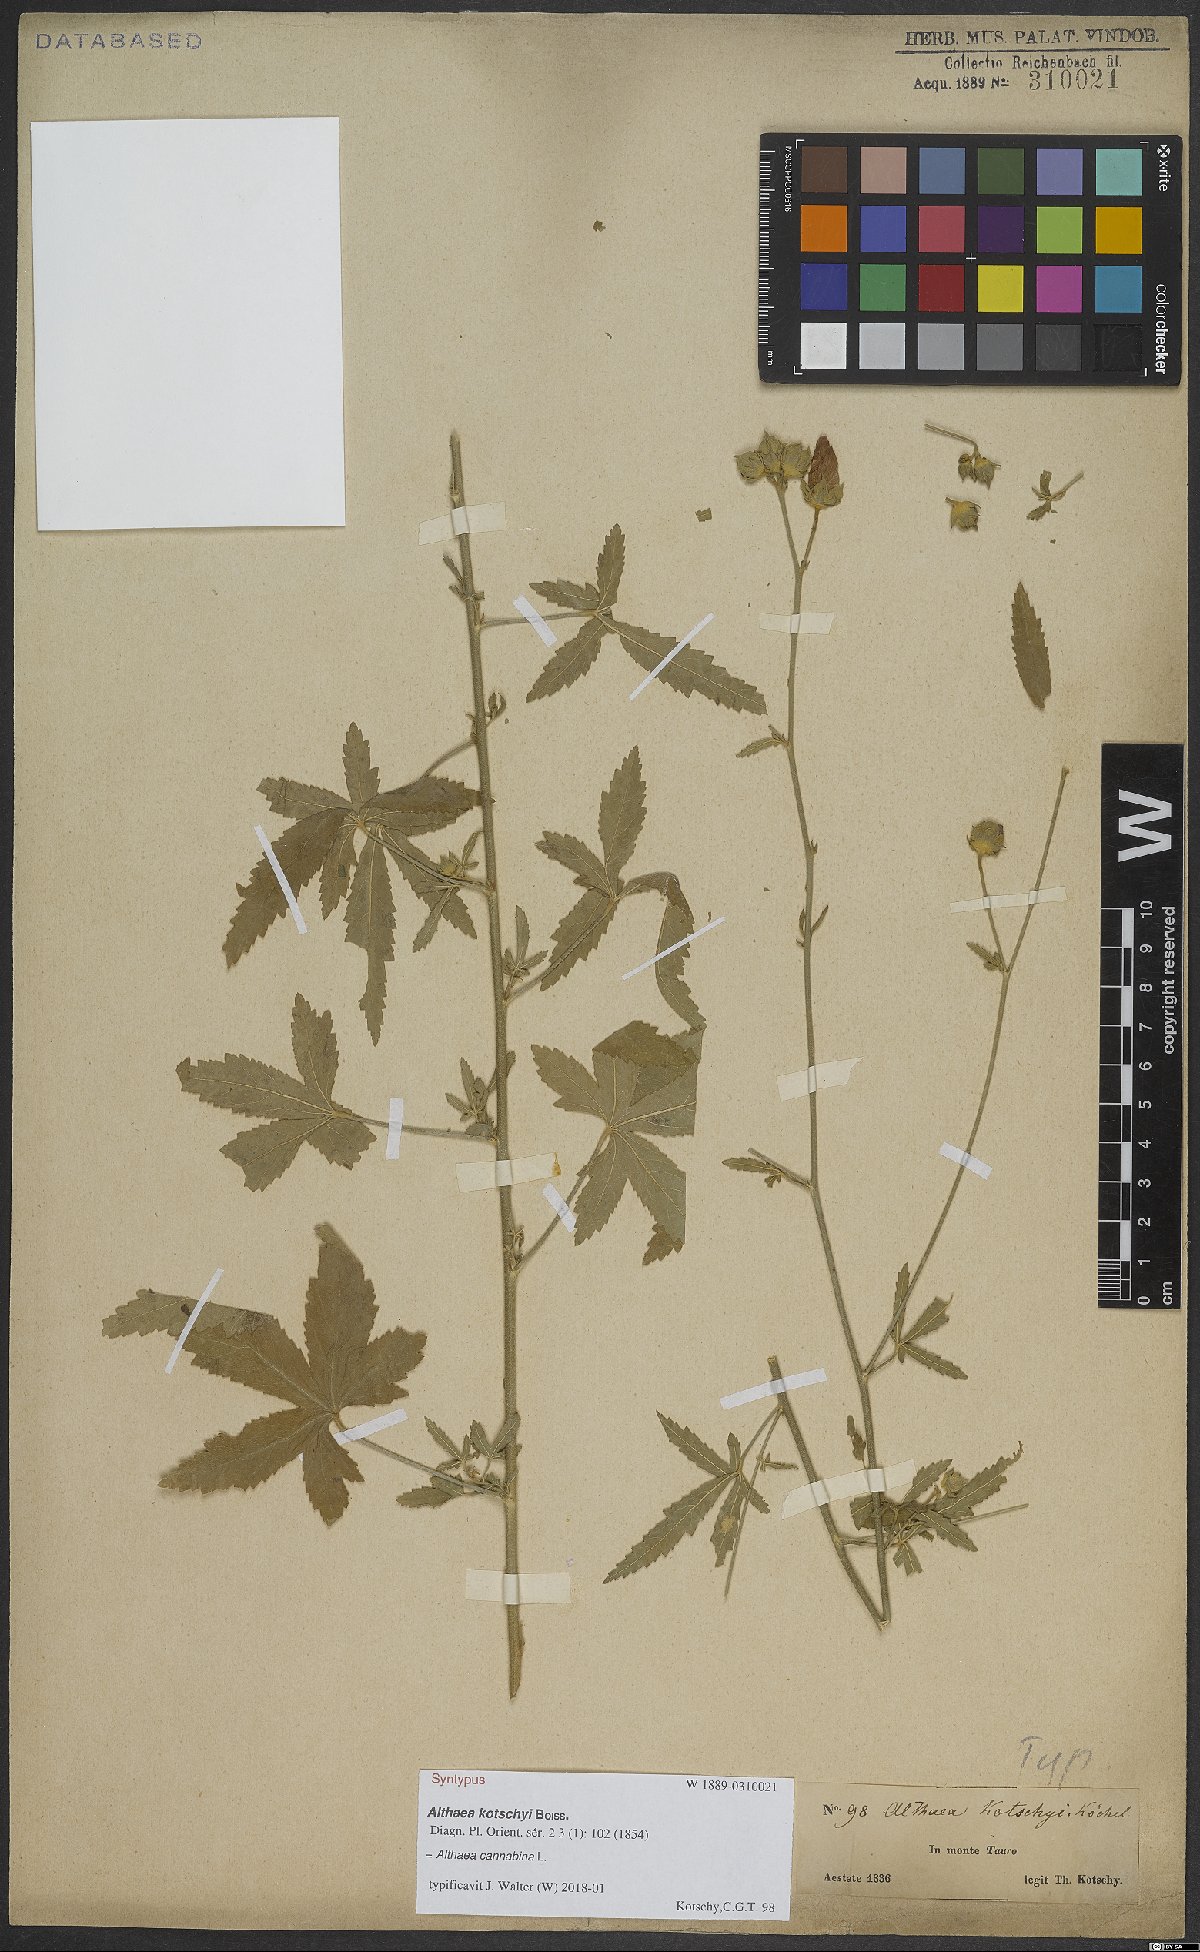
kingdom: Plantae
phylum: Tracheophyta
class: Magnoliopsida
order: Malvales
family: Malvaceae
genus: Althaea
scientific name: Althaea cannabina
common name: Palm-leaf marshmallow
